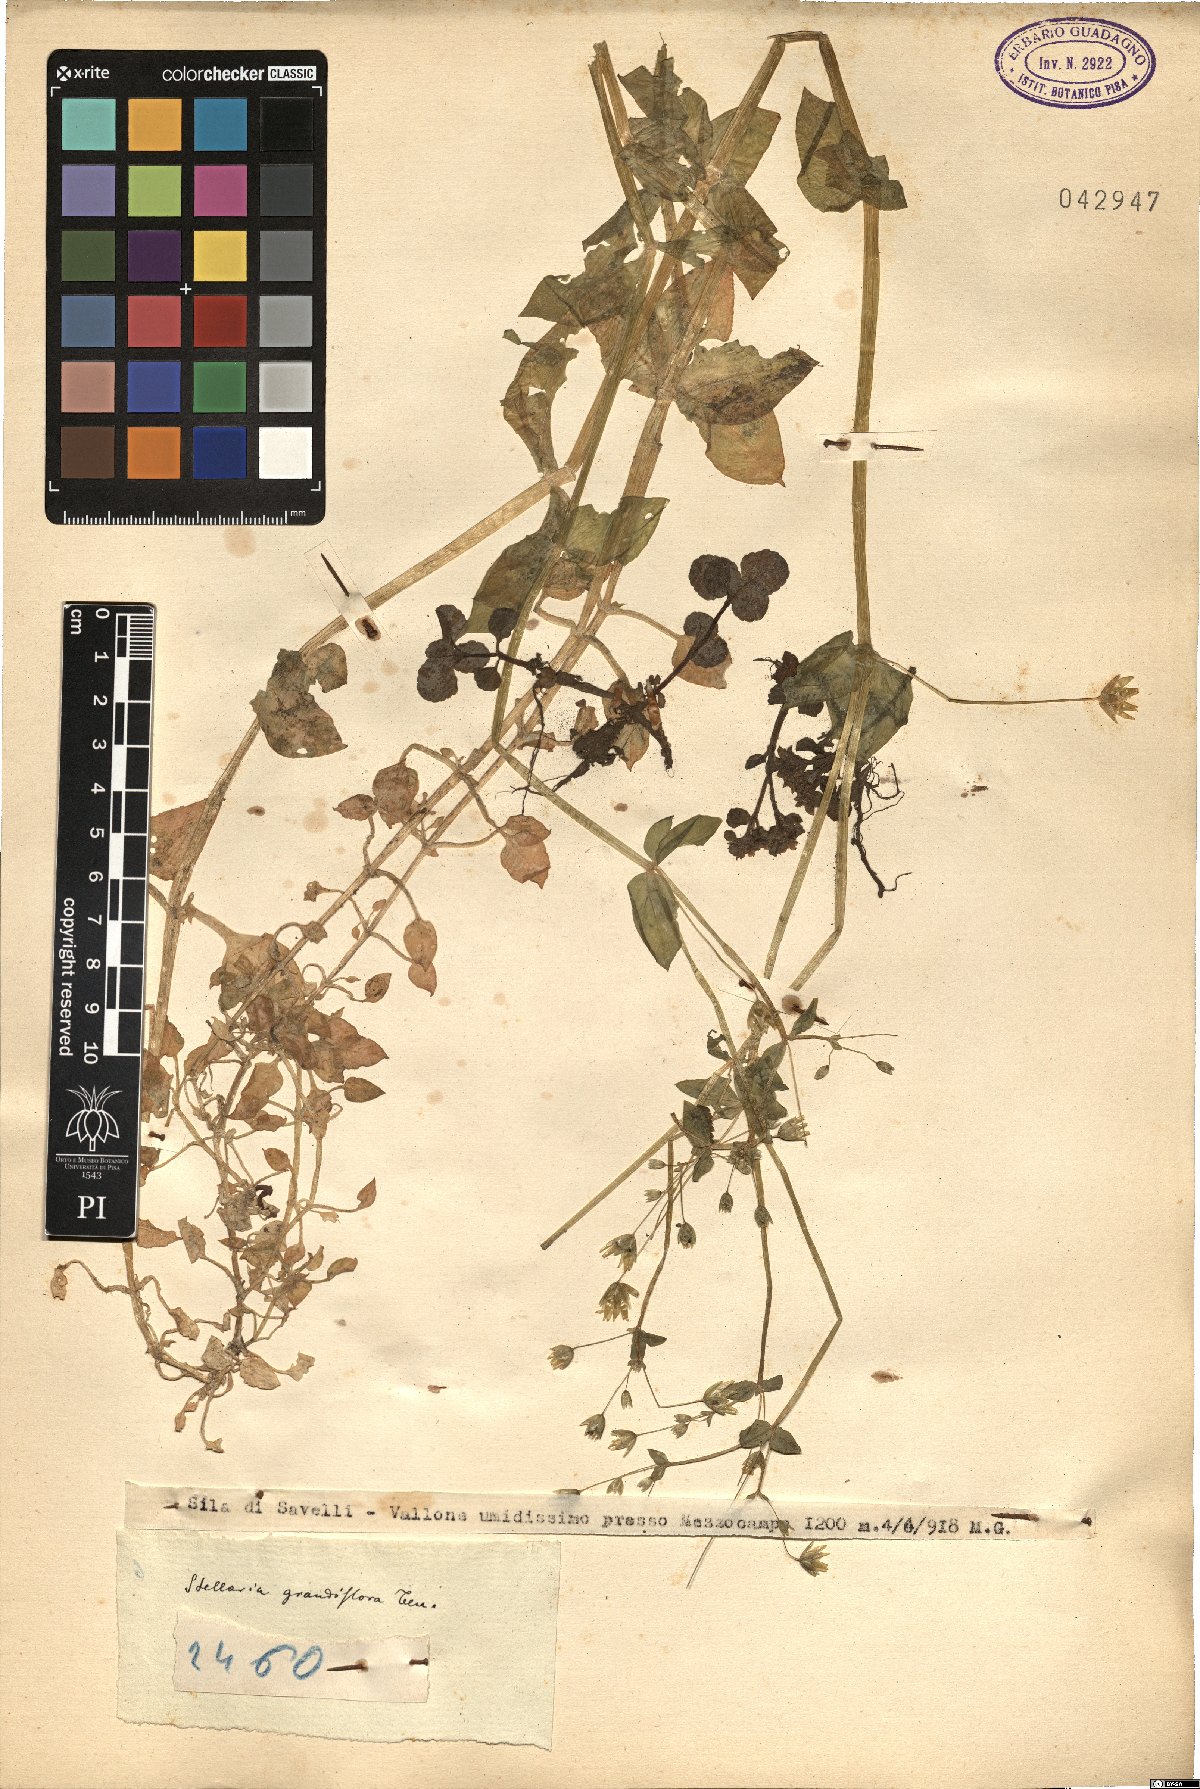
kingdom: Plantae
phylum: Tracheophyta
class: Magnoliopsida
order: Caryophyllales
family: Caryophyllaceae
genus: Stellaria
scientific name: Stellaria
